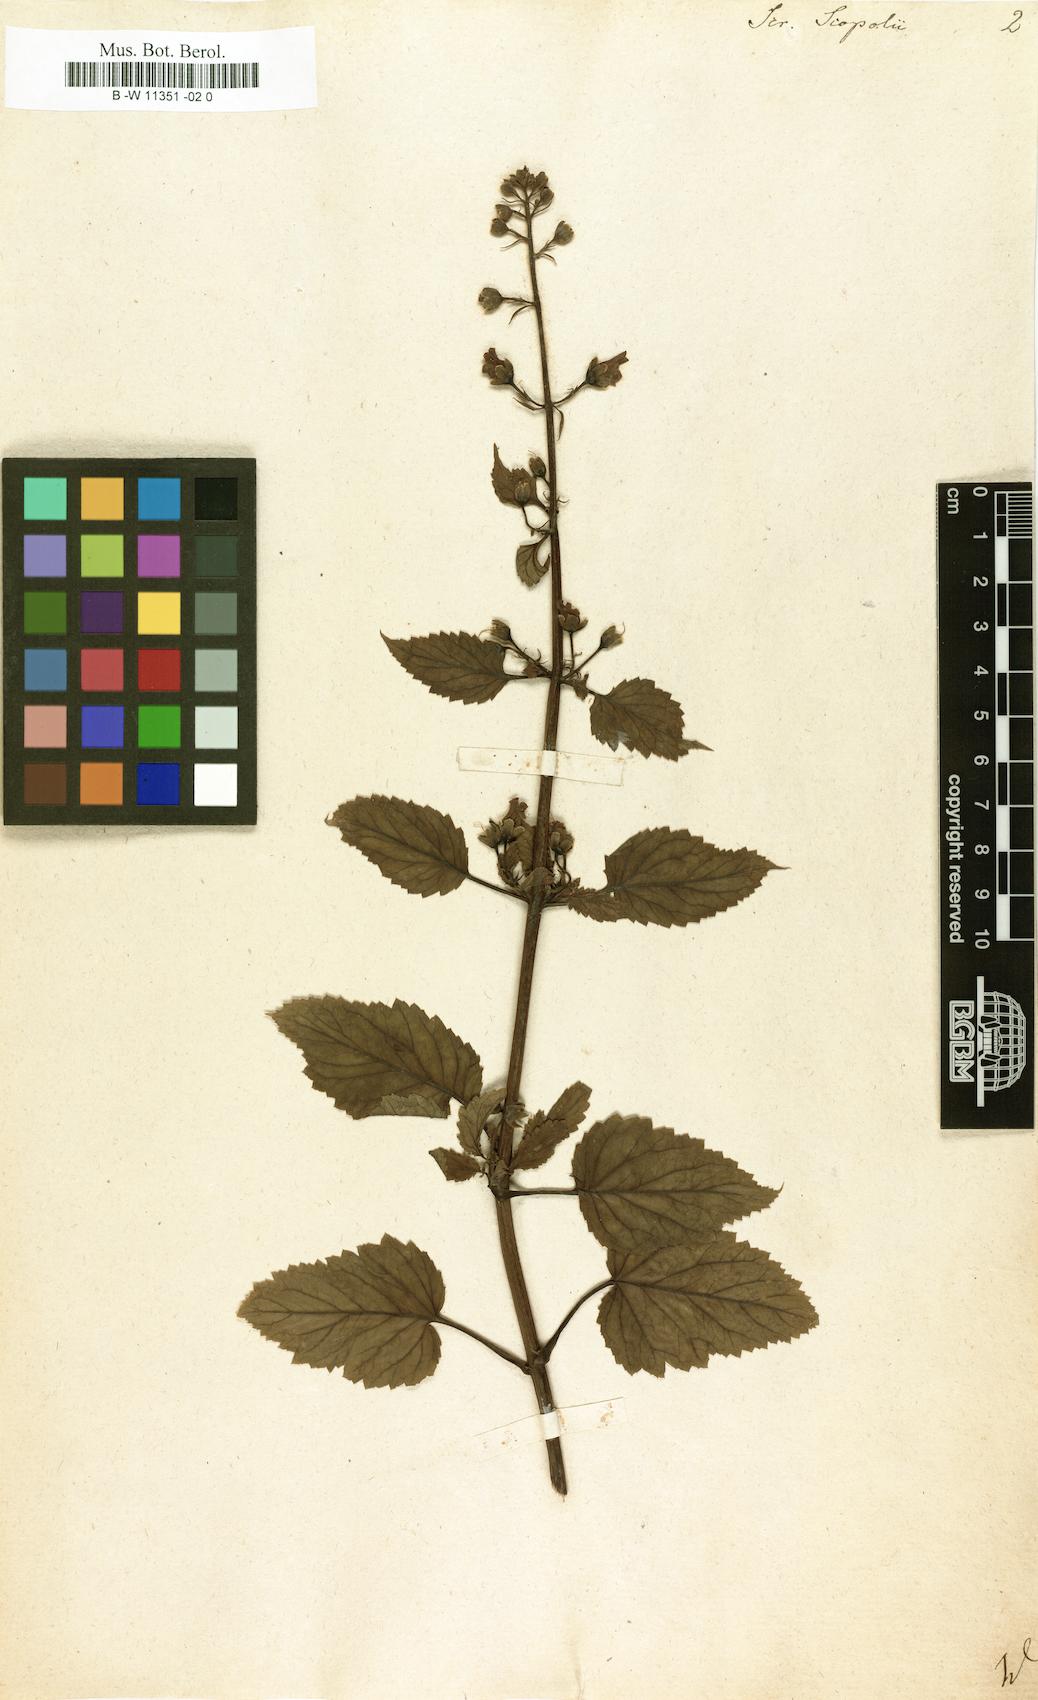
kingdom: Plantae
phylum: Tracheophyta
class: Magnoliopsida
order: Lamiales
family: Scrophulariaceae
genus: Scrophularia
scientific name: Scrophularia scopolii
